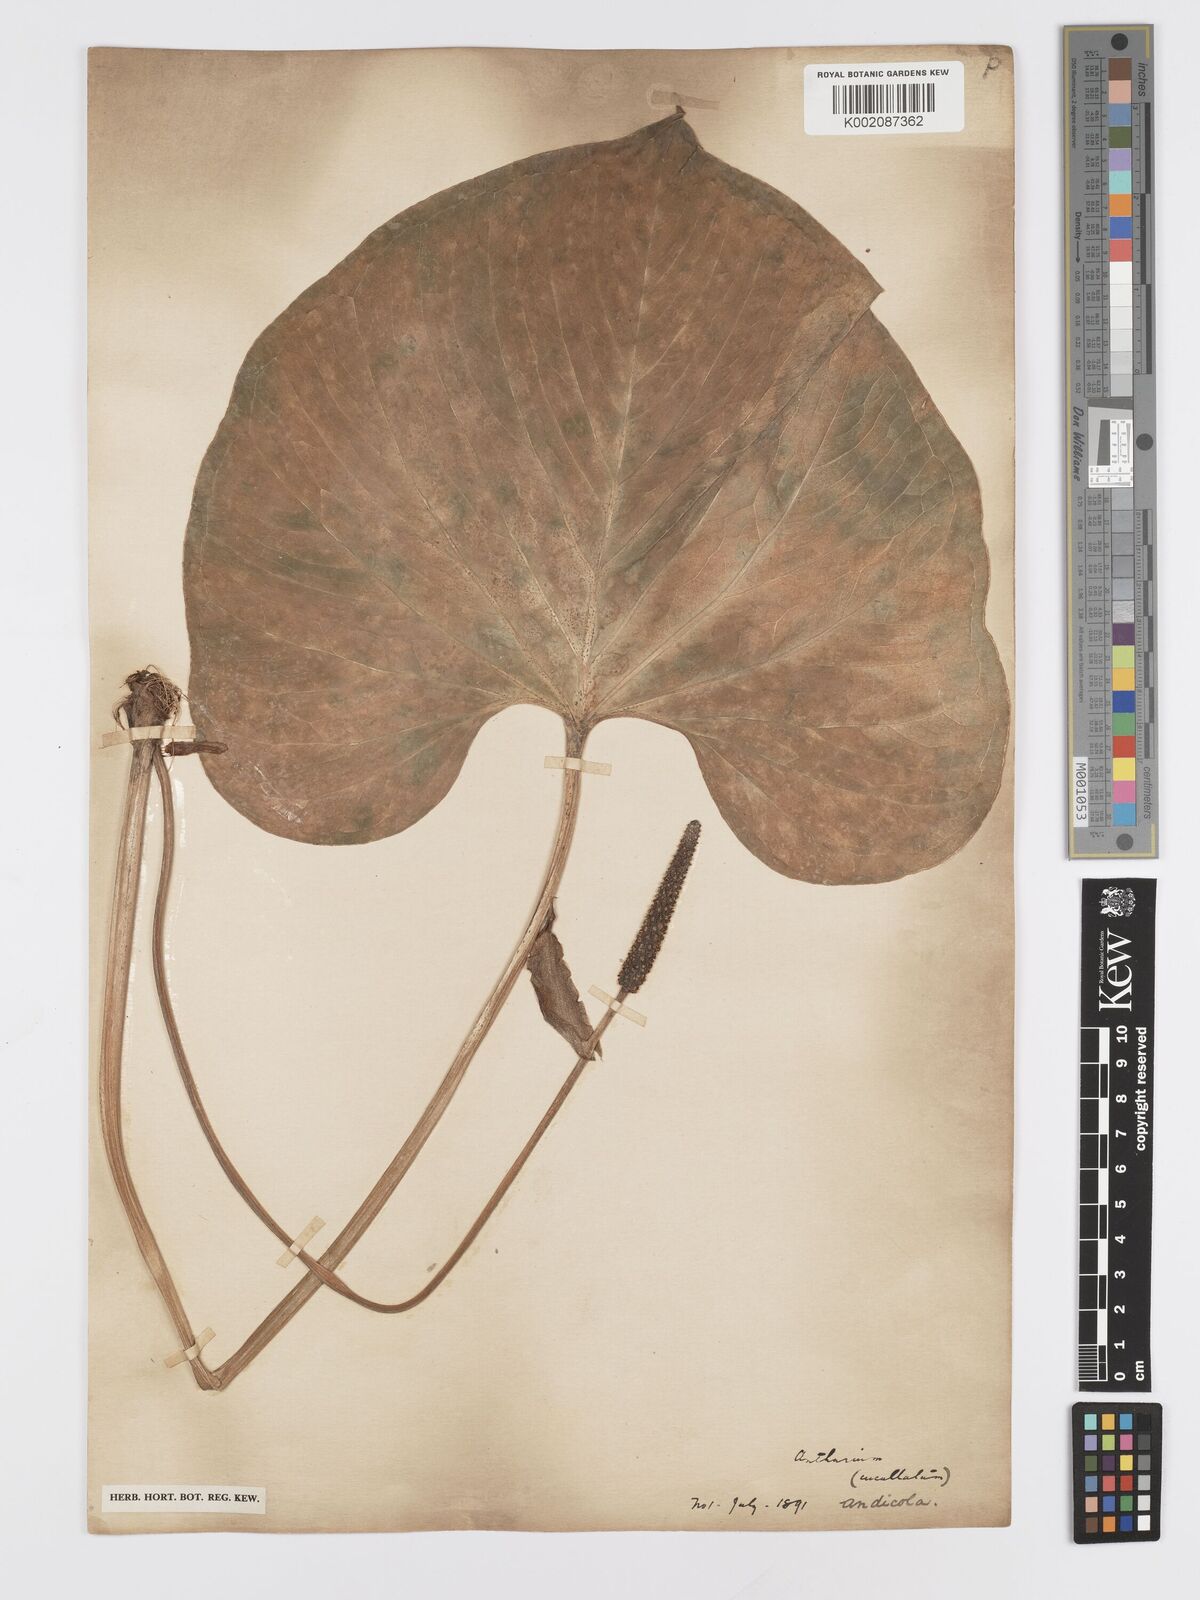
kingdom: Plantae
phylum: Tracheophyta
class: Liliopsida
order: Alismatales
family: Araceae
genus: Anthurium
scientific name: Anthurium andicola
